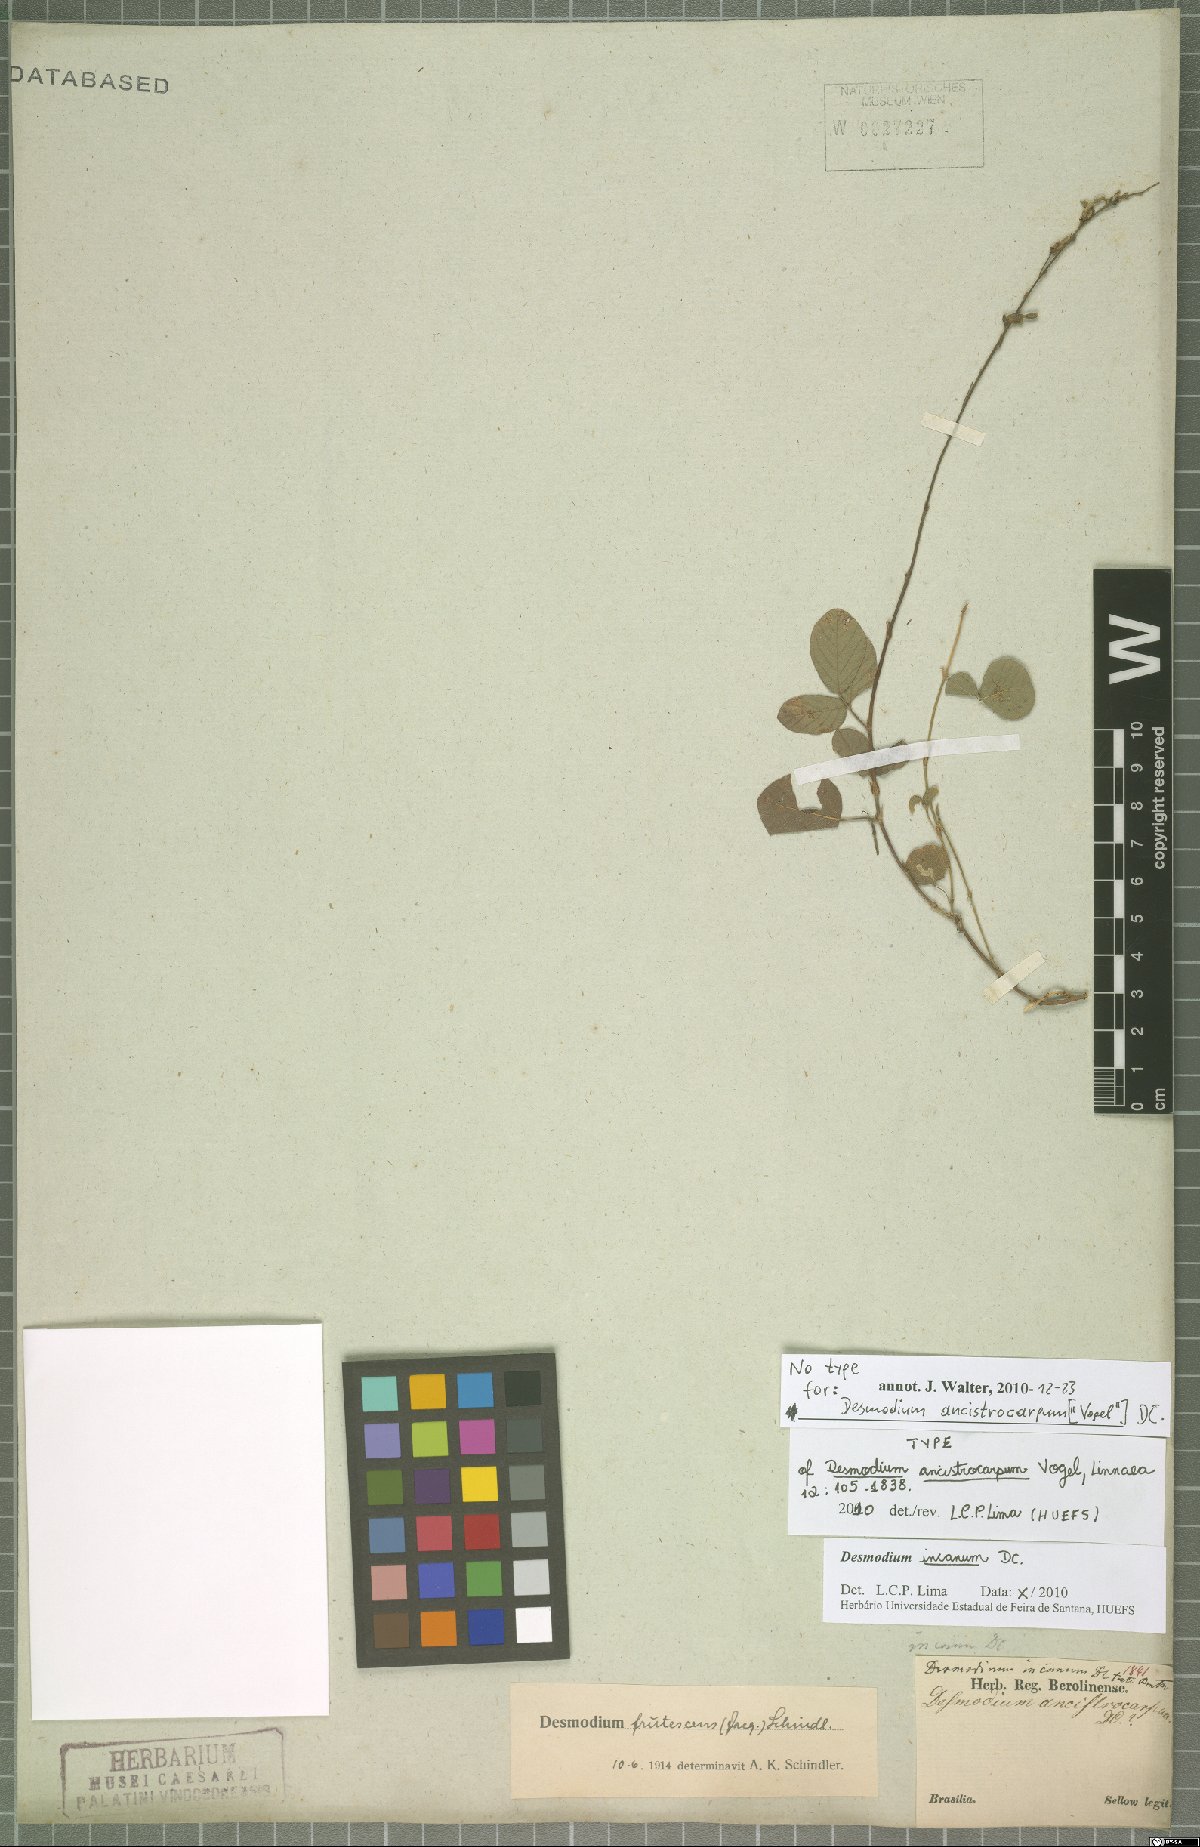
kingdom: Plantae
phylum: Tracheophyta
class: Magnoliopsida
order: Fabales
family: Fabaceae
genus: Desmodium
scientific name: Desmodium incanum
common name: Tickclover
